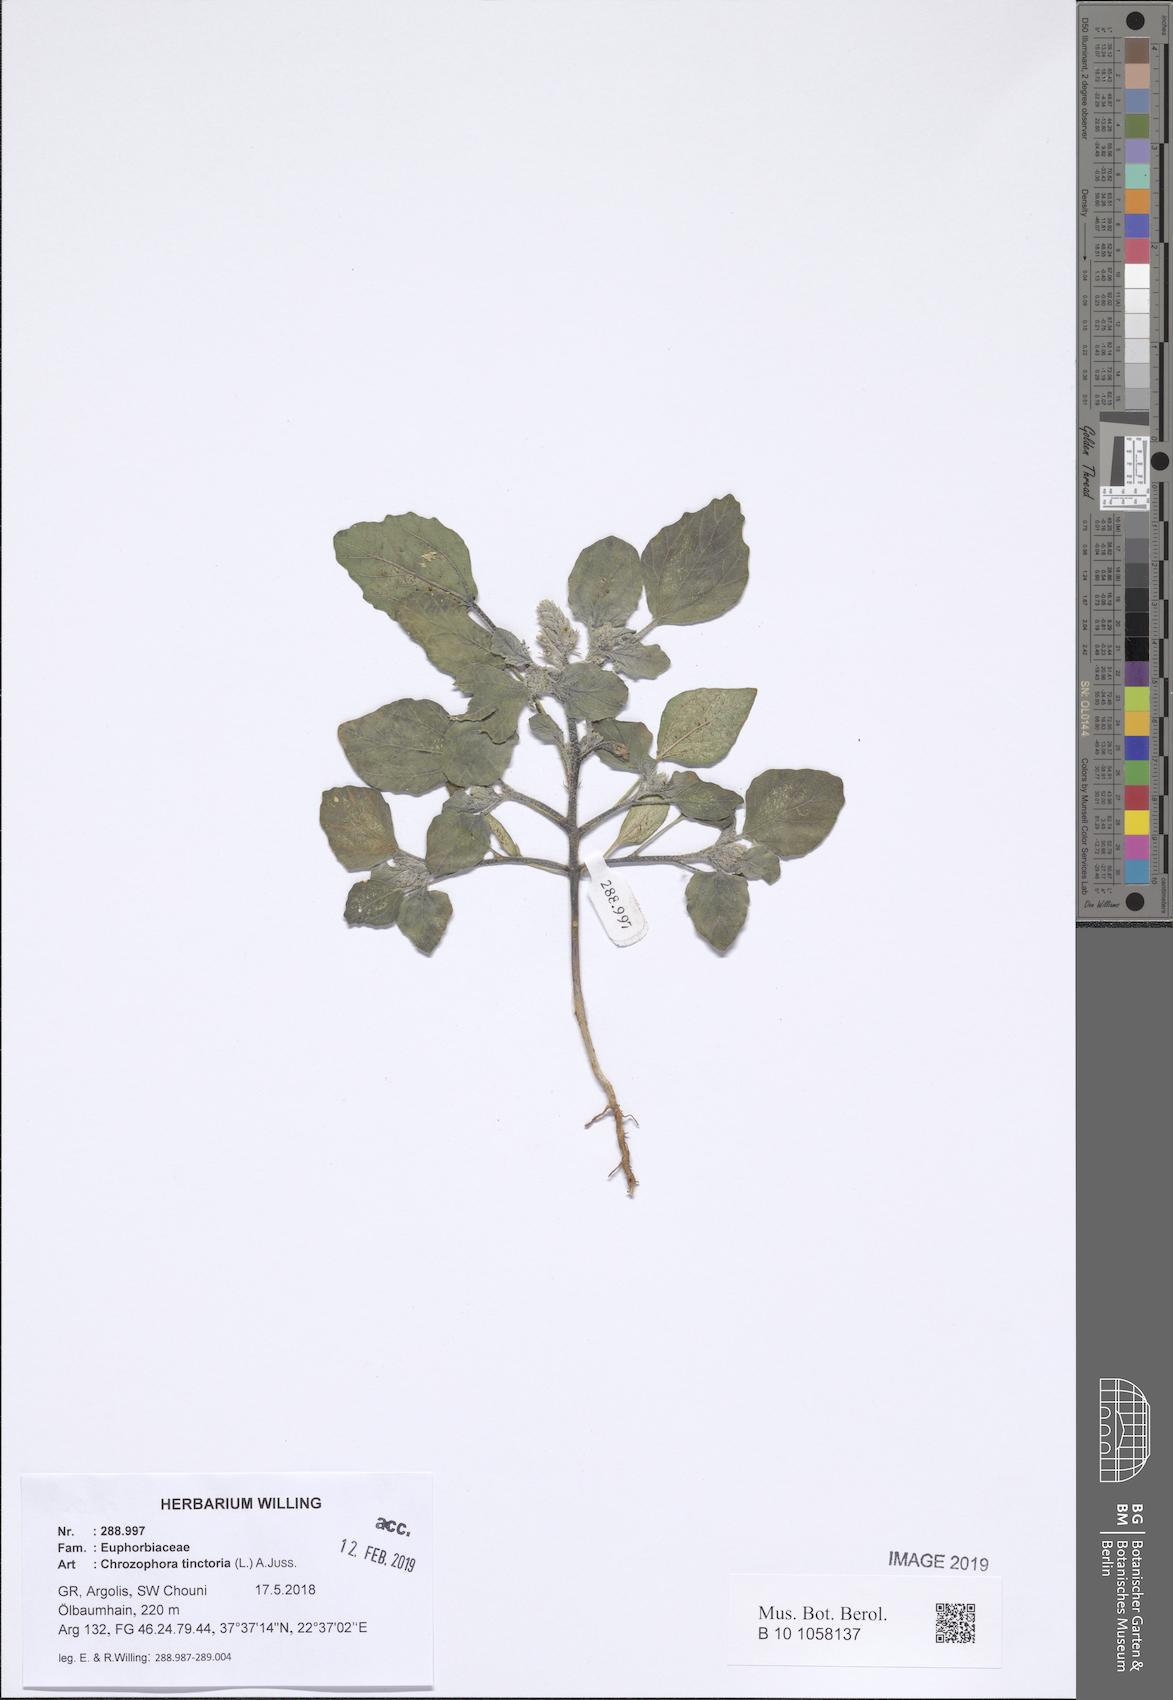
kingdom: Plantae
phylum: Tracheophyta
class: Magnoliopsida
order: Malpighiales
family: Euphorbiaceae
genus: Chrozophora
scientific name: Chrozophora tinctoria
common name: Dyer's litmus
